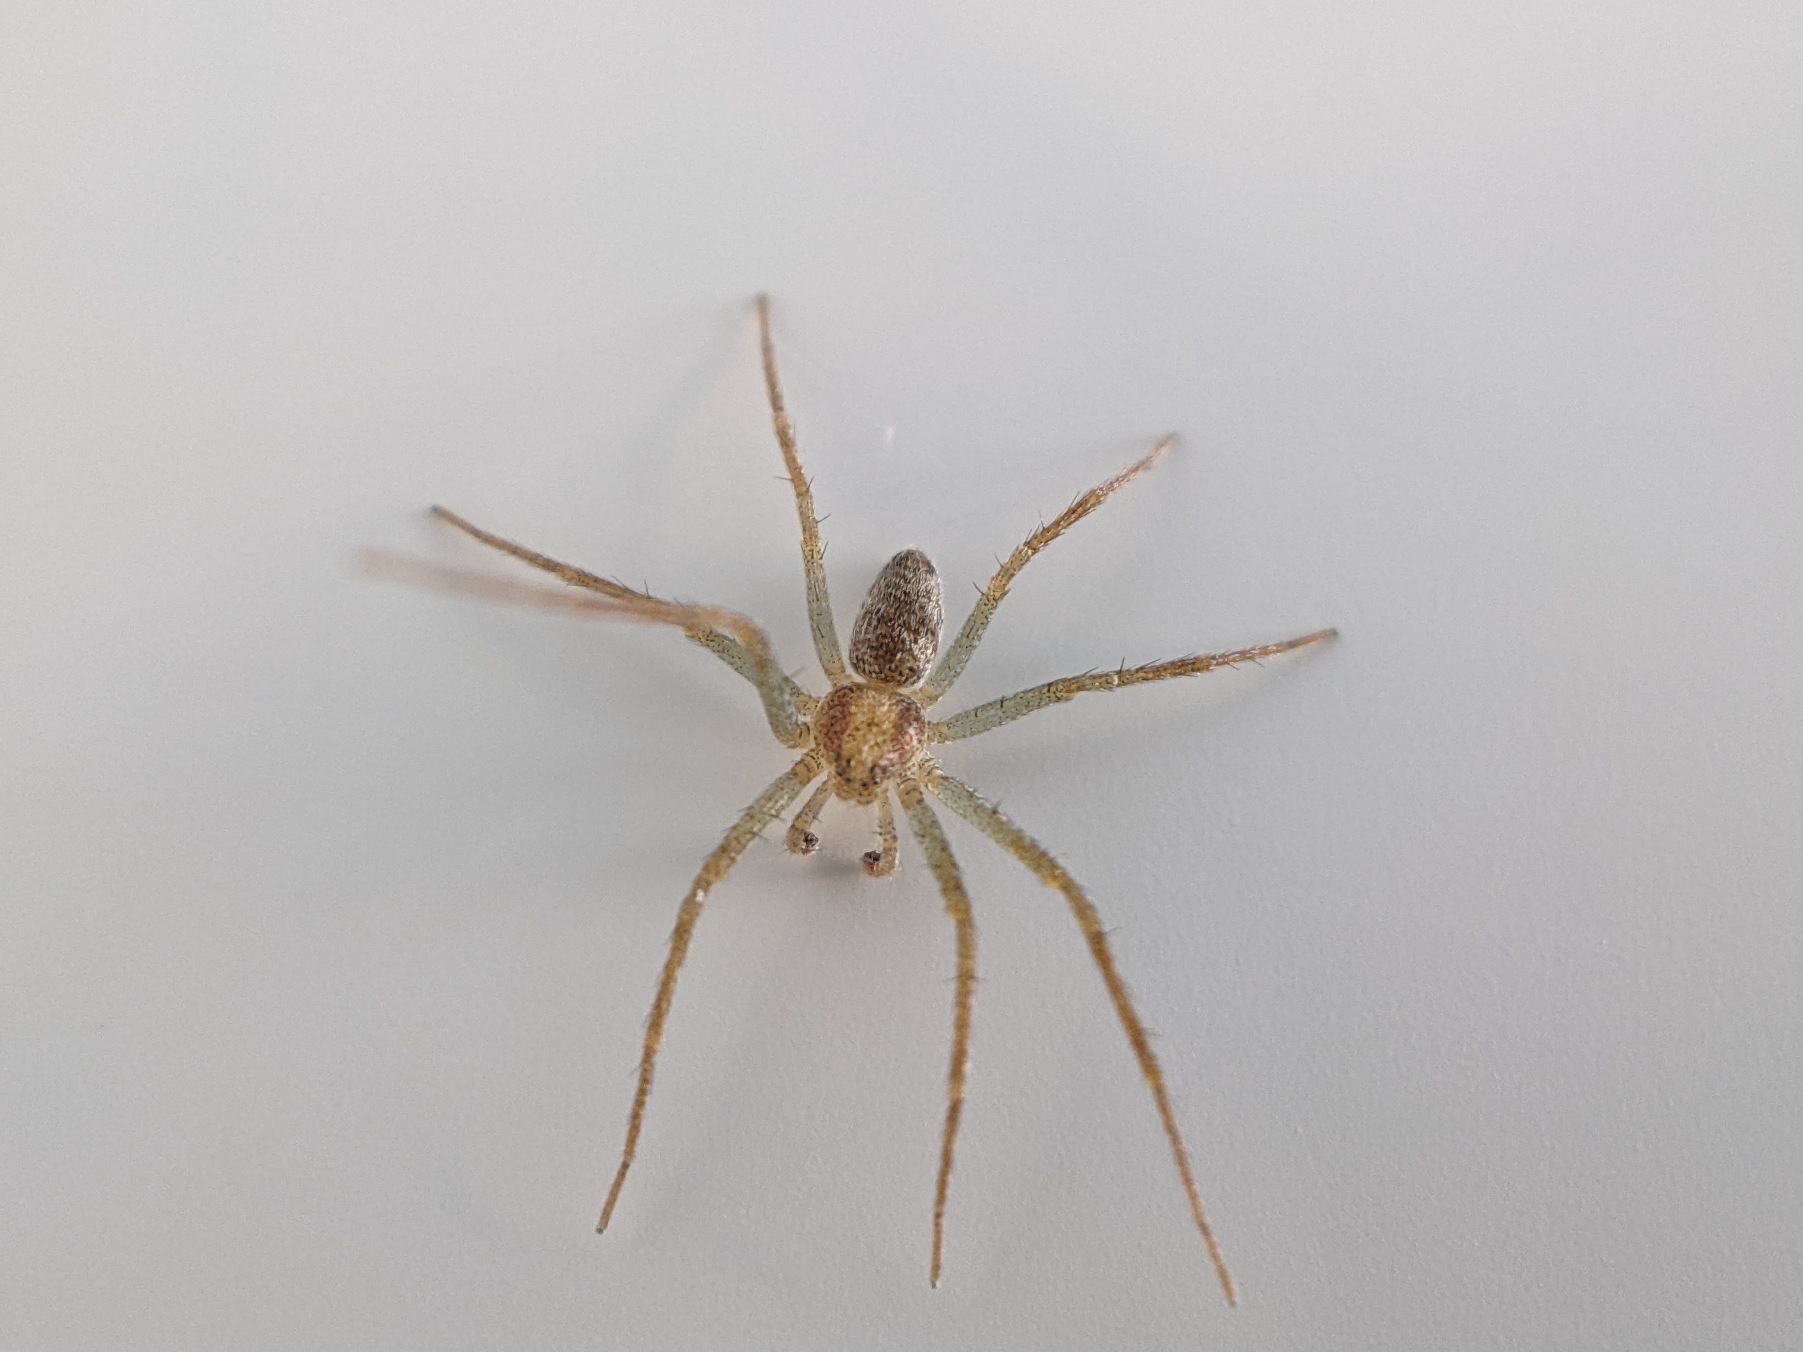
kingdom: Animalia
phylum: Arthropoda
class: Arachnida
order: Araneae
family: Philodromidae
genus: Philodromus
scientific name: Philodromus albidus
